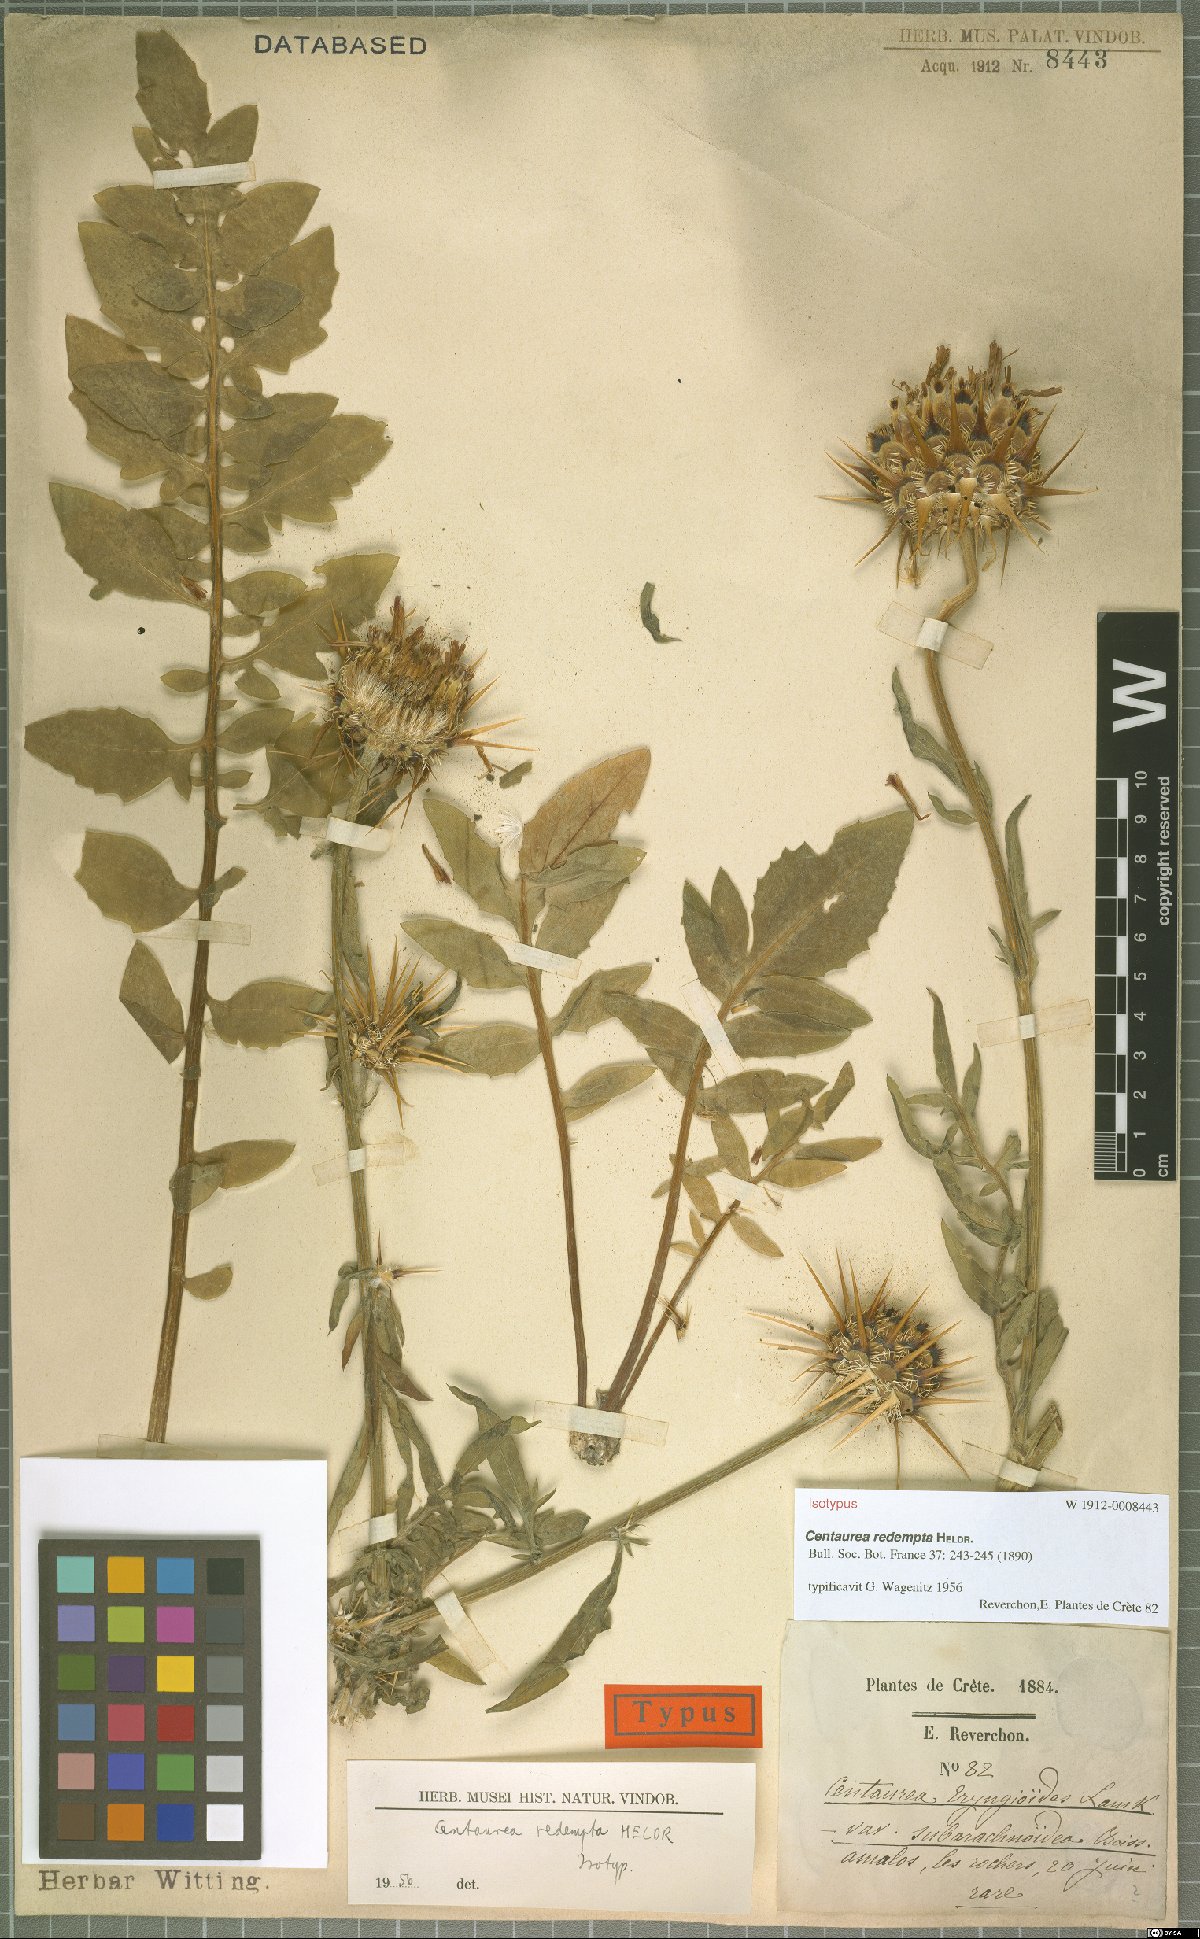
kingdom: Plantae
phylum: Tracheophyta
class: Magnoliopsida
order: Asterales
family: Asteraceae
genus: Centaurea
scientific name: Centaurea redempta
